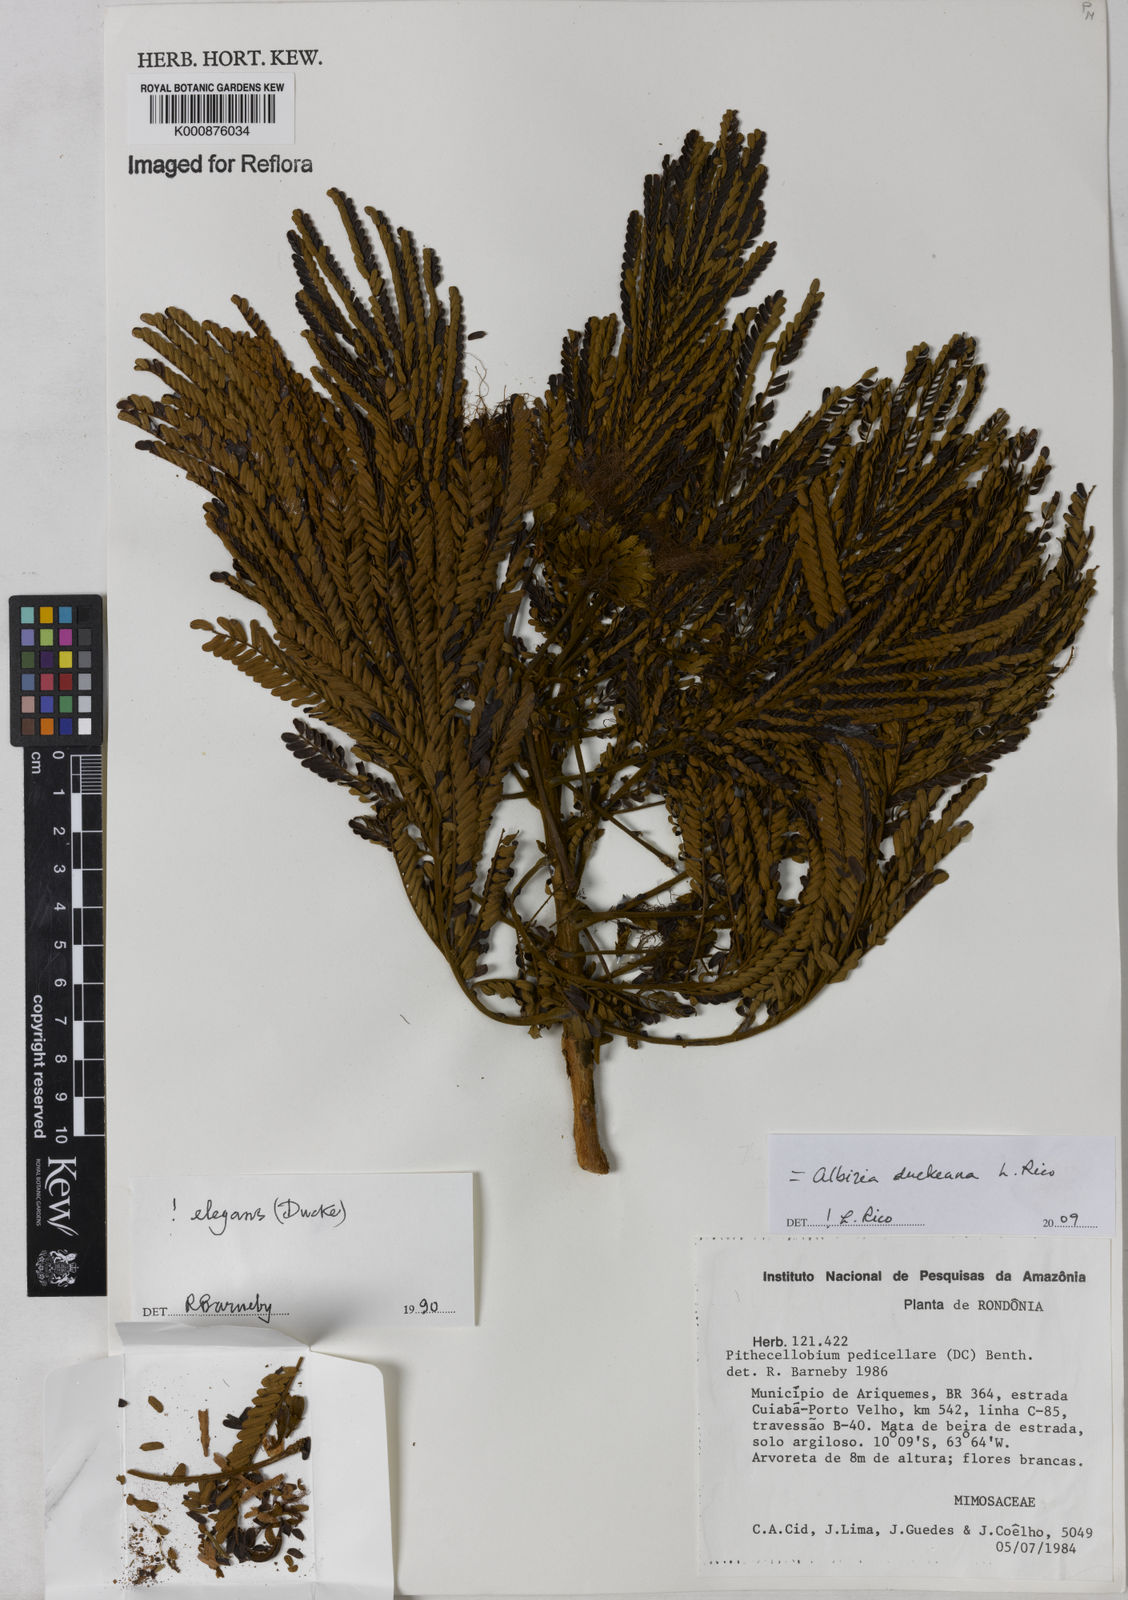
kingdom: Plantae
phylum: Tracheophyta
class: Magnoliopsida
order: Fabales
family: Fabaceae
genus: Balizia
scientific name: Balizia elegans
